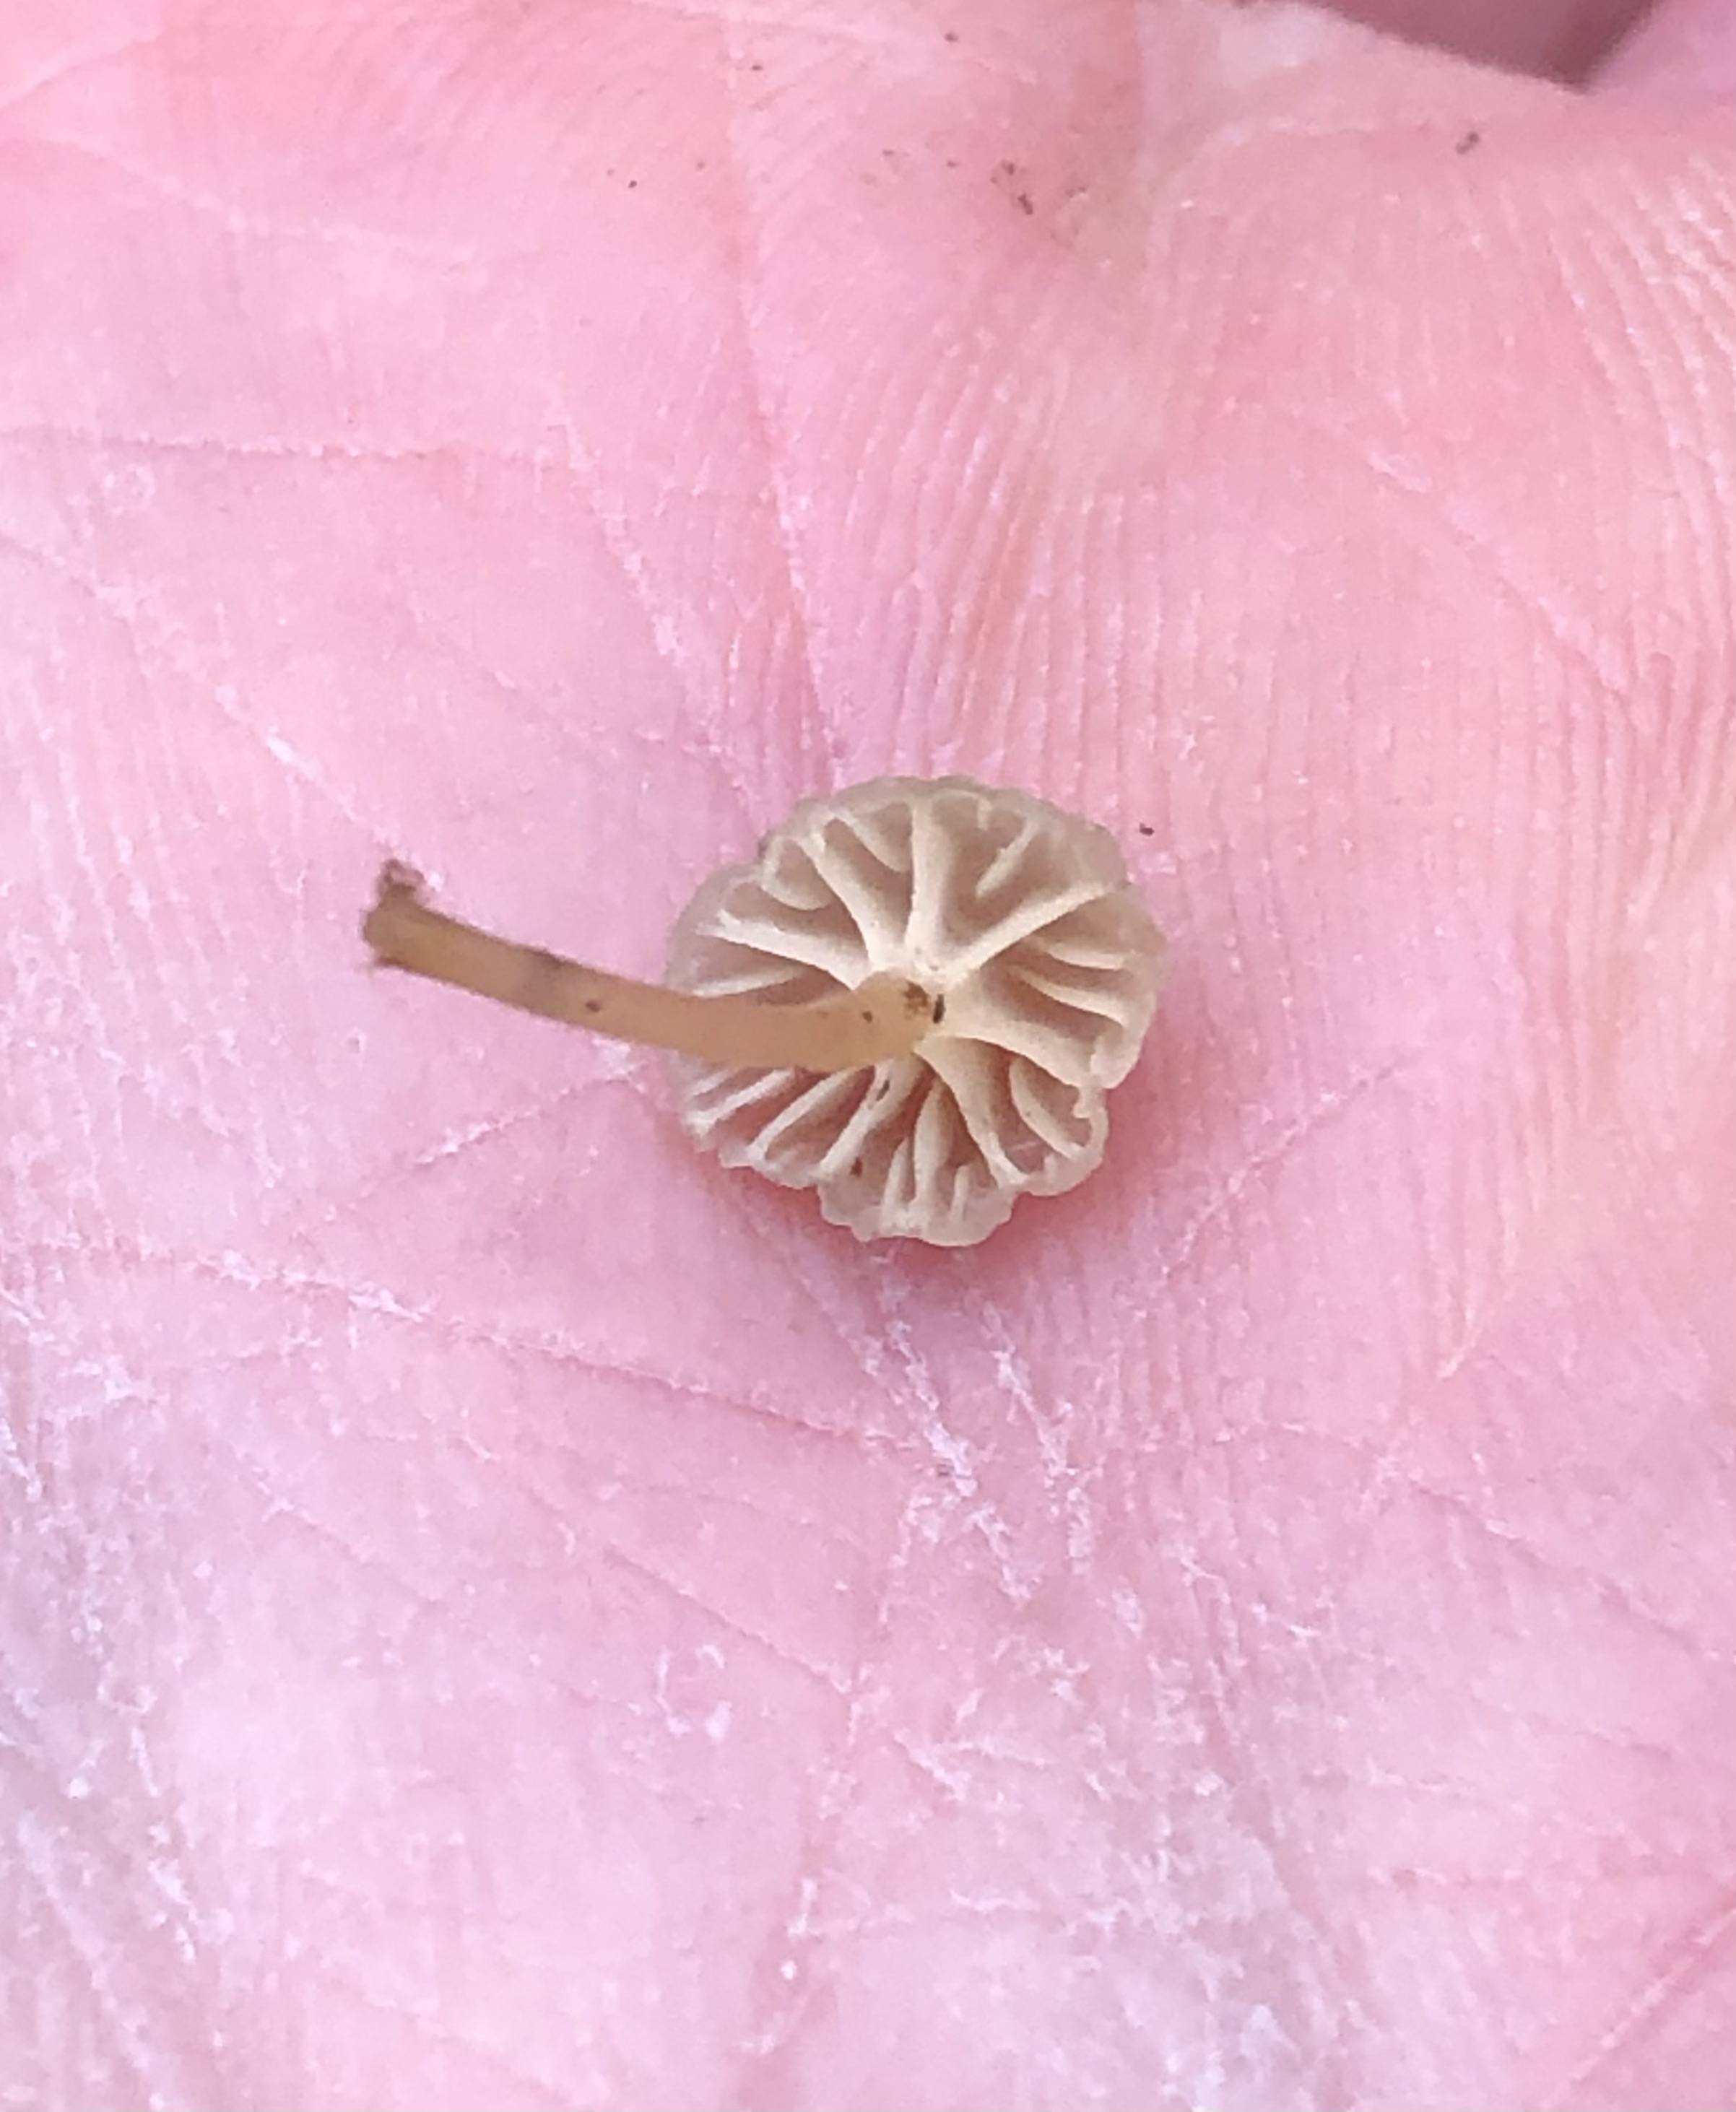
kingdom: Fungi
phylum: Basidiomycota
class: Agaricomycetes
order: Agaricales
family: Porotheleaceae
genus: Phloeomana
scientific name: Phloeomana speirea
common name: kvist-huesvamp
